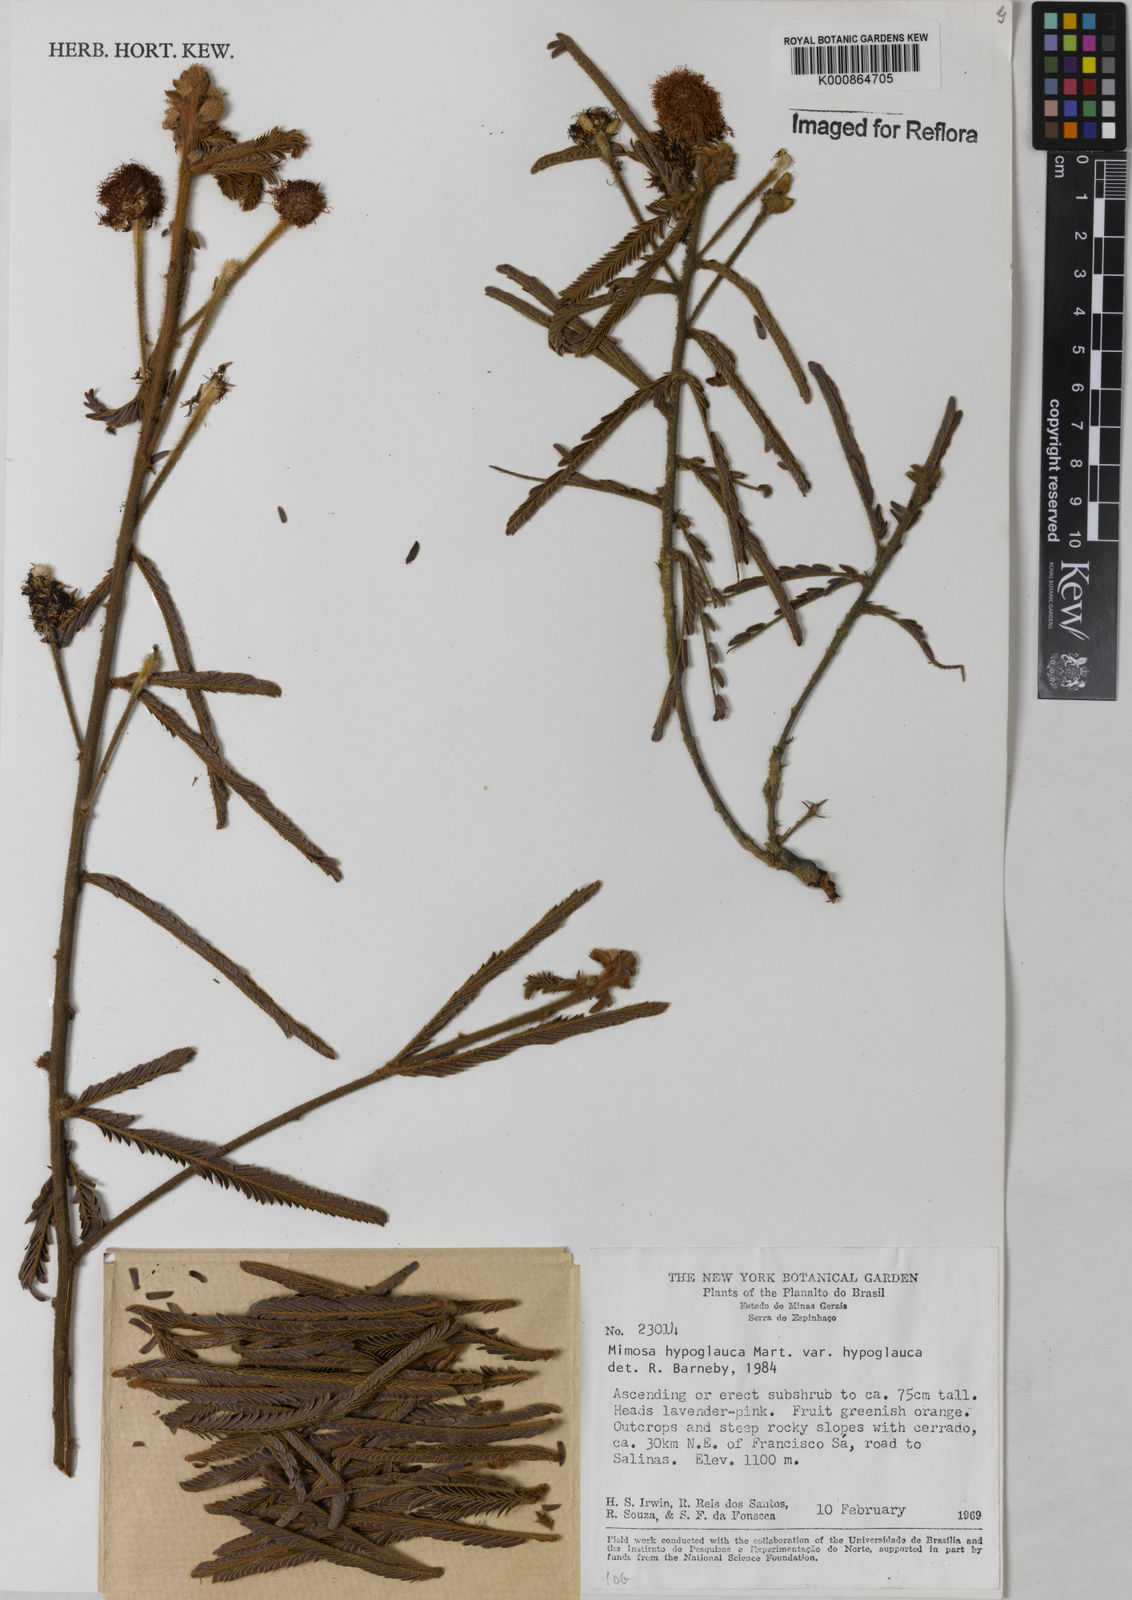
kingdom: Plantae
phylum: Tracheophyta
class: Magnoliopsida
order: Fabales
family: Fabaceae
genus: Mimosa
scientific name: Mimosa hypoglauca
